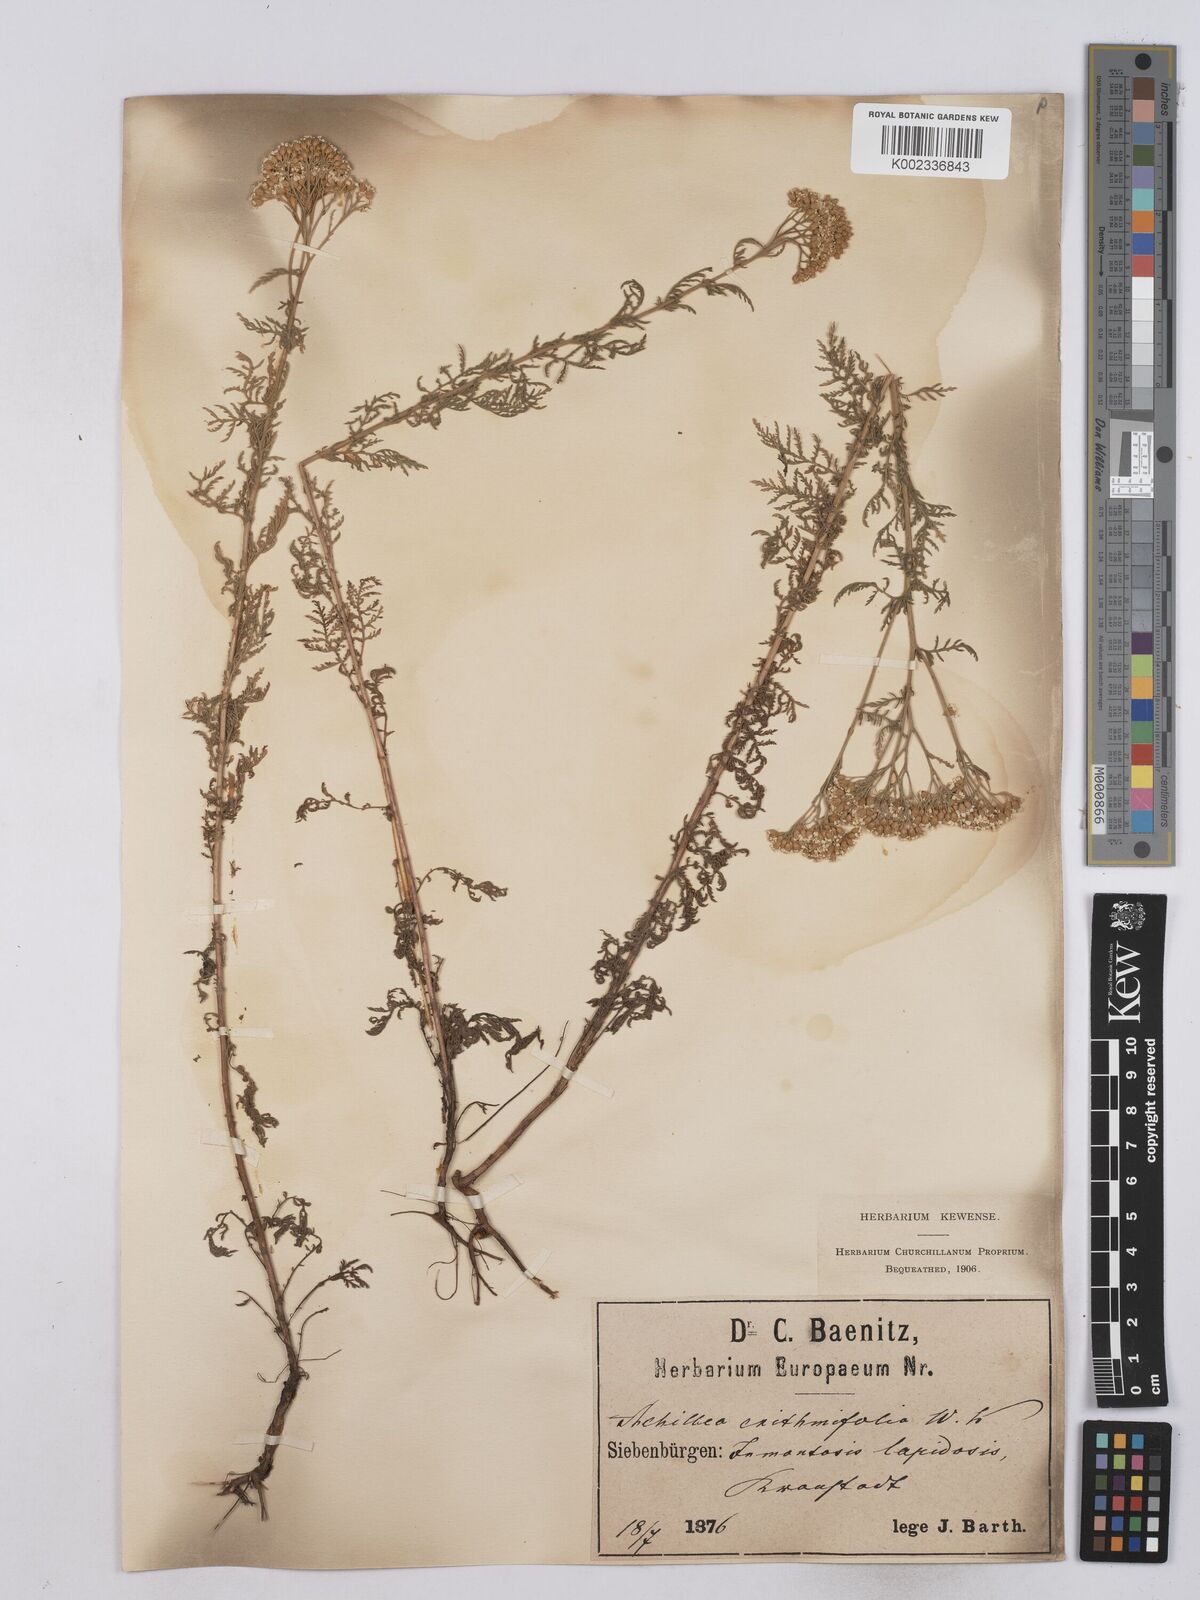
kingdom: Plantae
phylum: Tracheophyta
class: Magnoliopsida
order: Asterales
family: Asteraceae
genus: Achillea
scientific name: Achillea crithmifolia
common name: Yarrow
